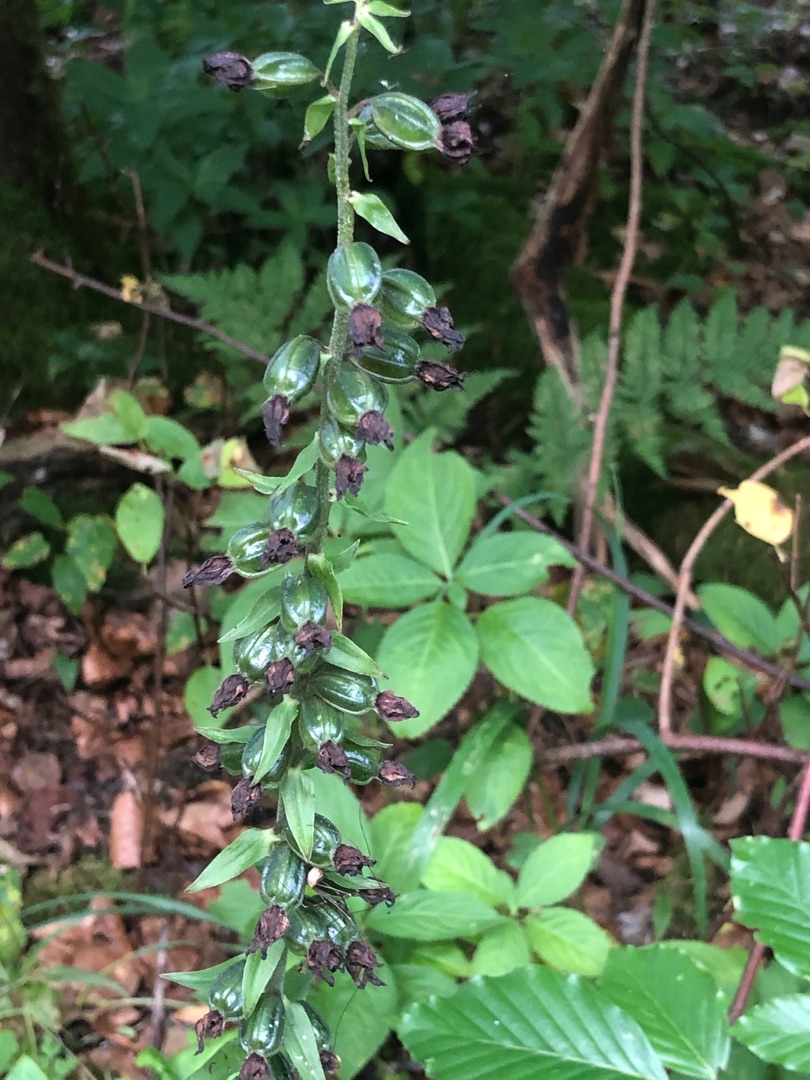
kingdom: Plantae
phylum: Tracheophyta
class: Liliopsida
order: Asparagales
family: Orchidaceae
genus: Epipactis
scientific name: Epipactis helleborine
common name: Skov-hullæbe
